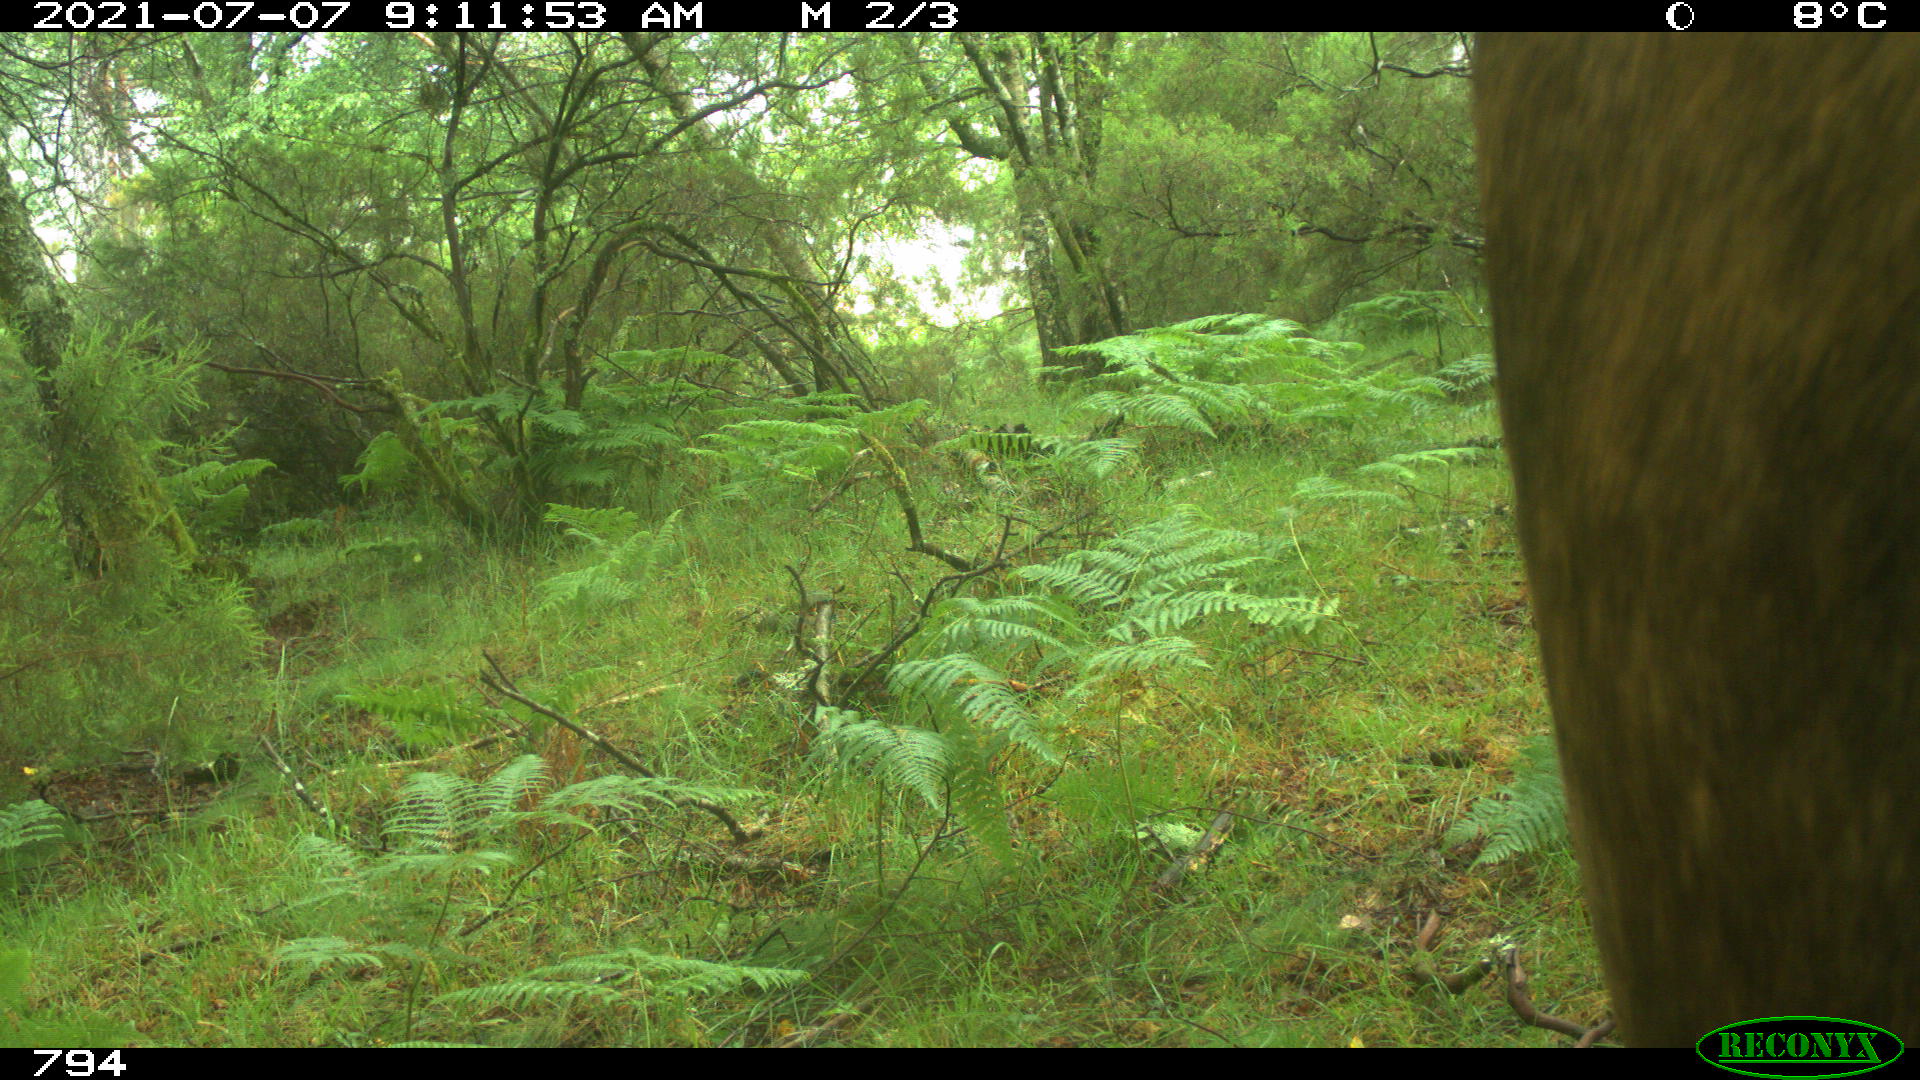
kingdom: Animalia
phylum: Chordata
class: Mammalia
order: Artiodactyla
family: Bovidae
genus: Bos
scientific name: Bos taurus
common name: Domesticated cattle
